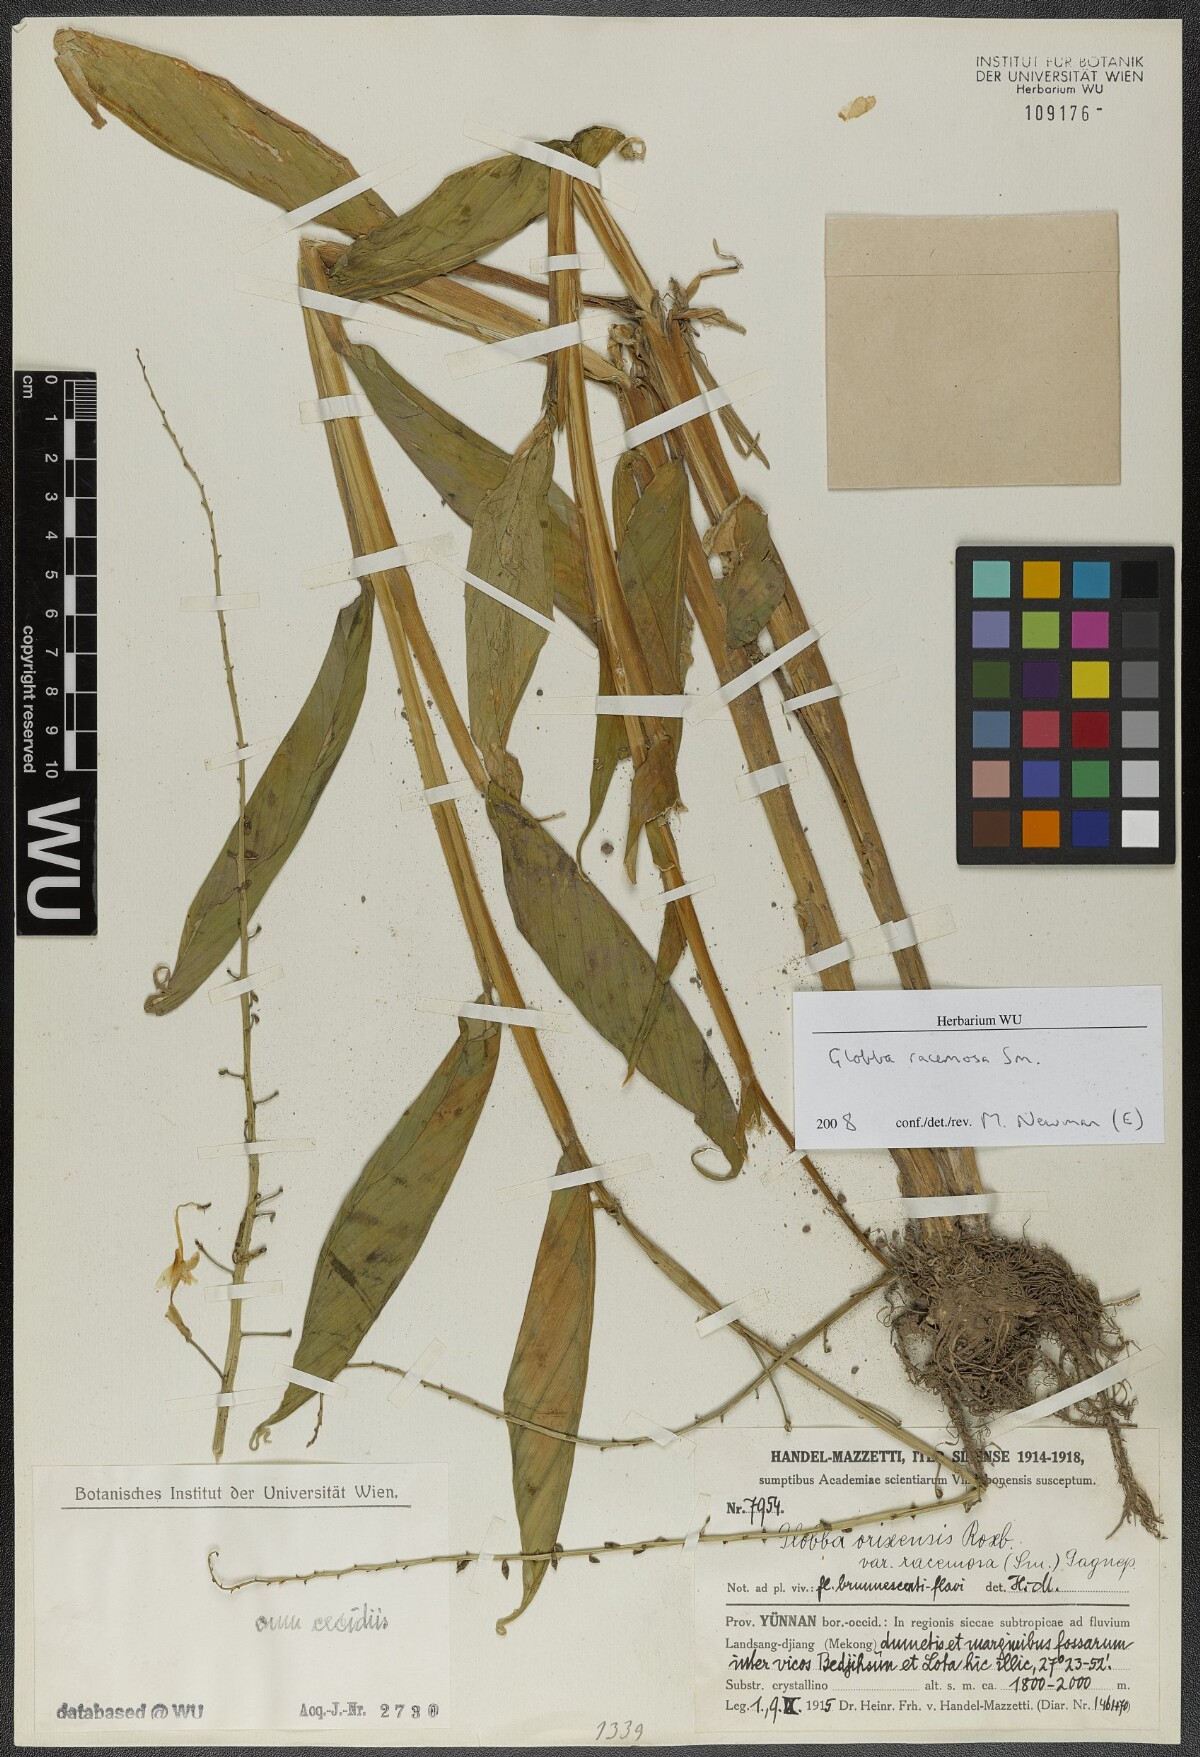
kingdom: Plantae
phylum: Tracheophyta
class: Liliopsida
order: Zingiberales
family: Zingiberaceae
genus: Globba
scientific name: Globba racemosa
